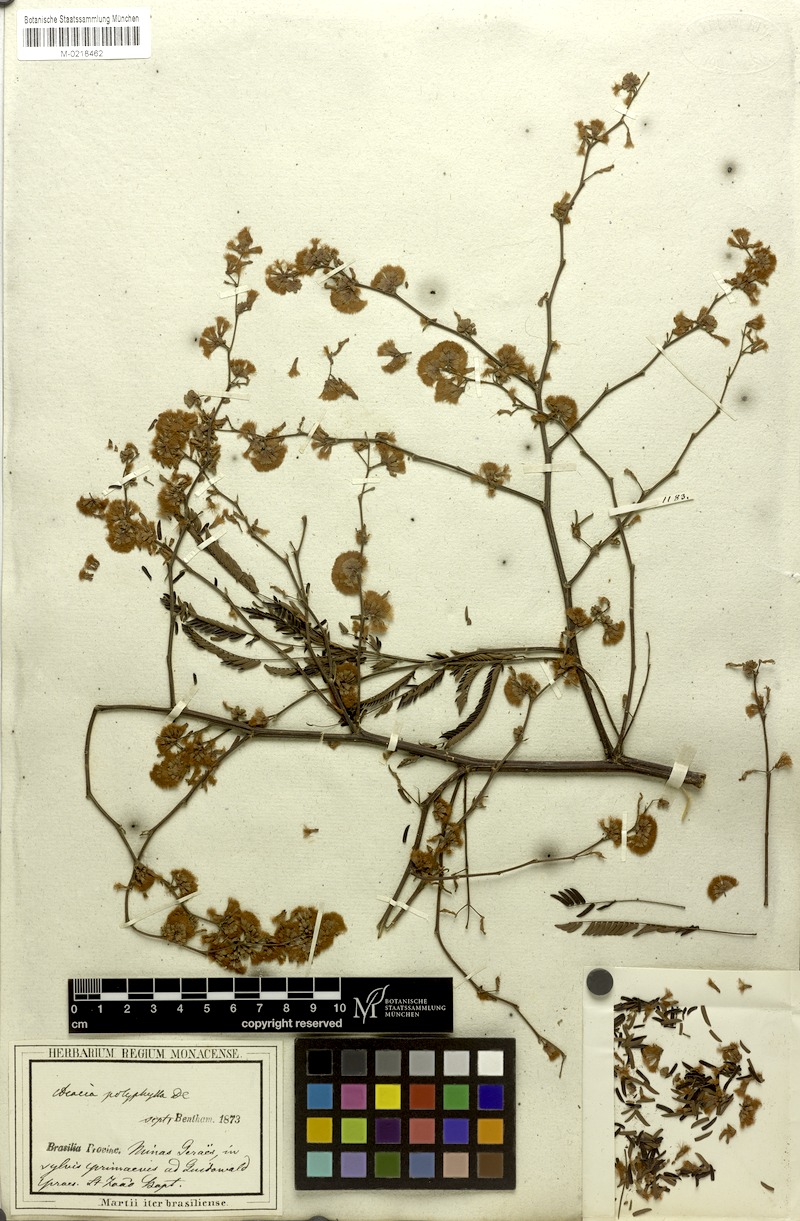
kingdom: Plantae
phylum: Tracheophyta
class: Magnoliopsida
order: Fabales
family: Fabaceae
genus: Senegalia
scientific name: Senegalia polyphylla
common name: White-tamarind
